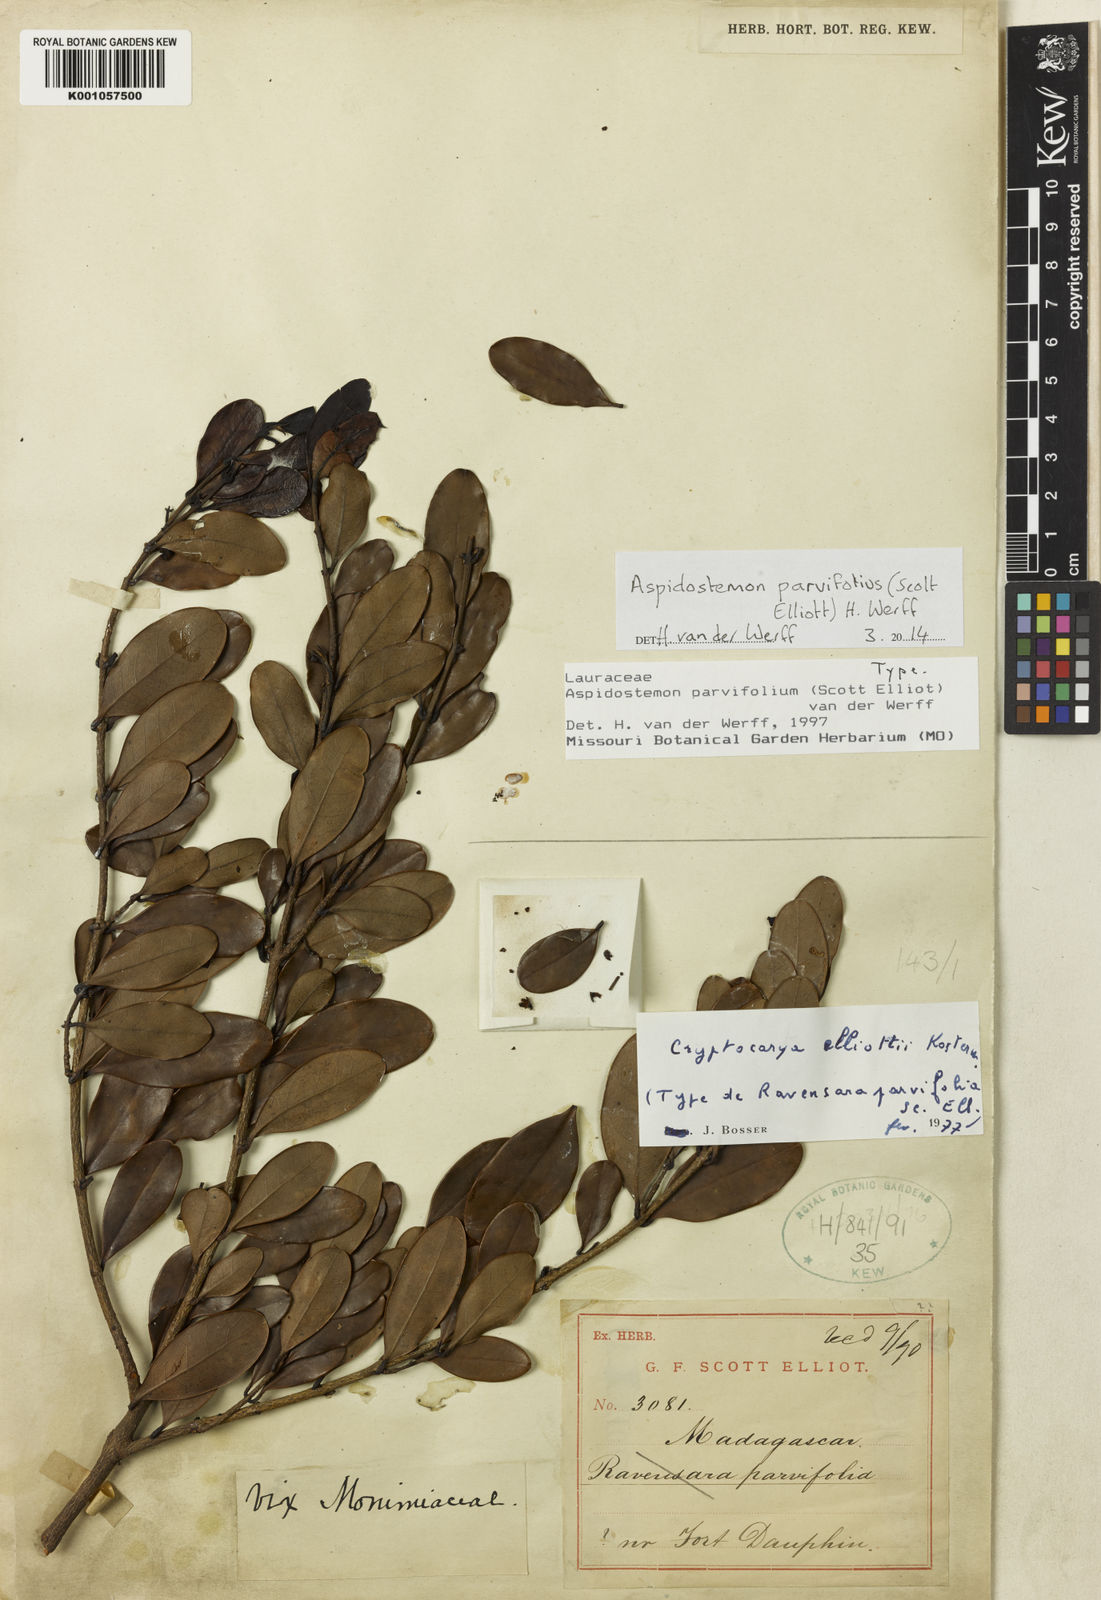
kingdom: Plantae
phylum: Tracheophyta
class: Magnoliopsida
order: Laurales
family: Lauraceae
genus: Aspidostemon
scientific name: Aspidostemon parvifolius
